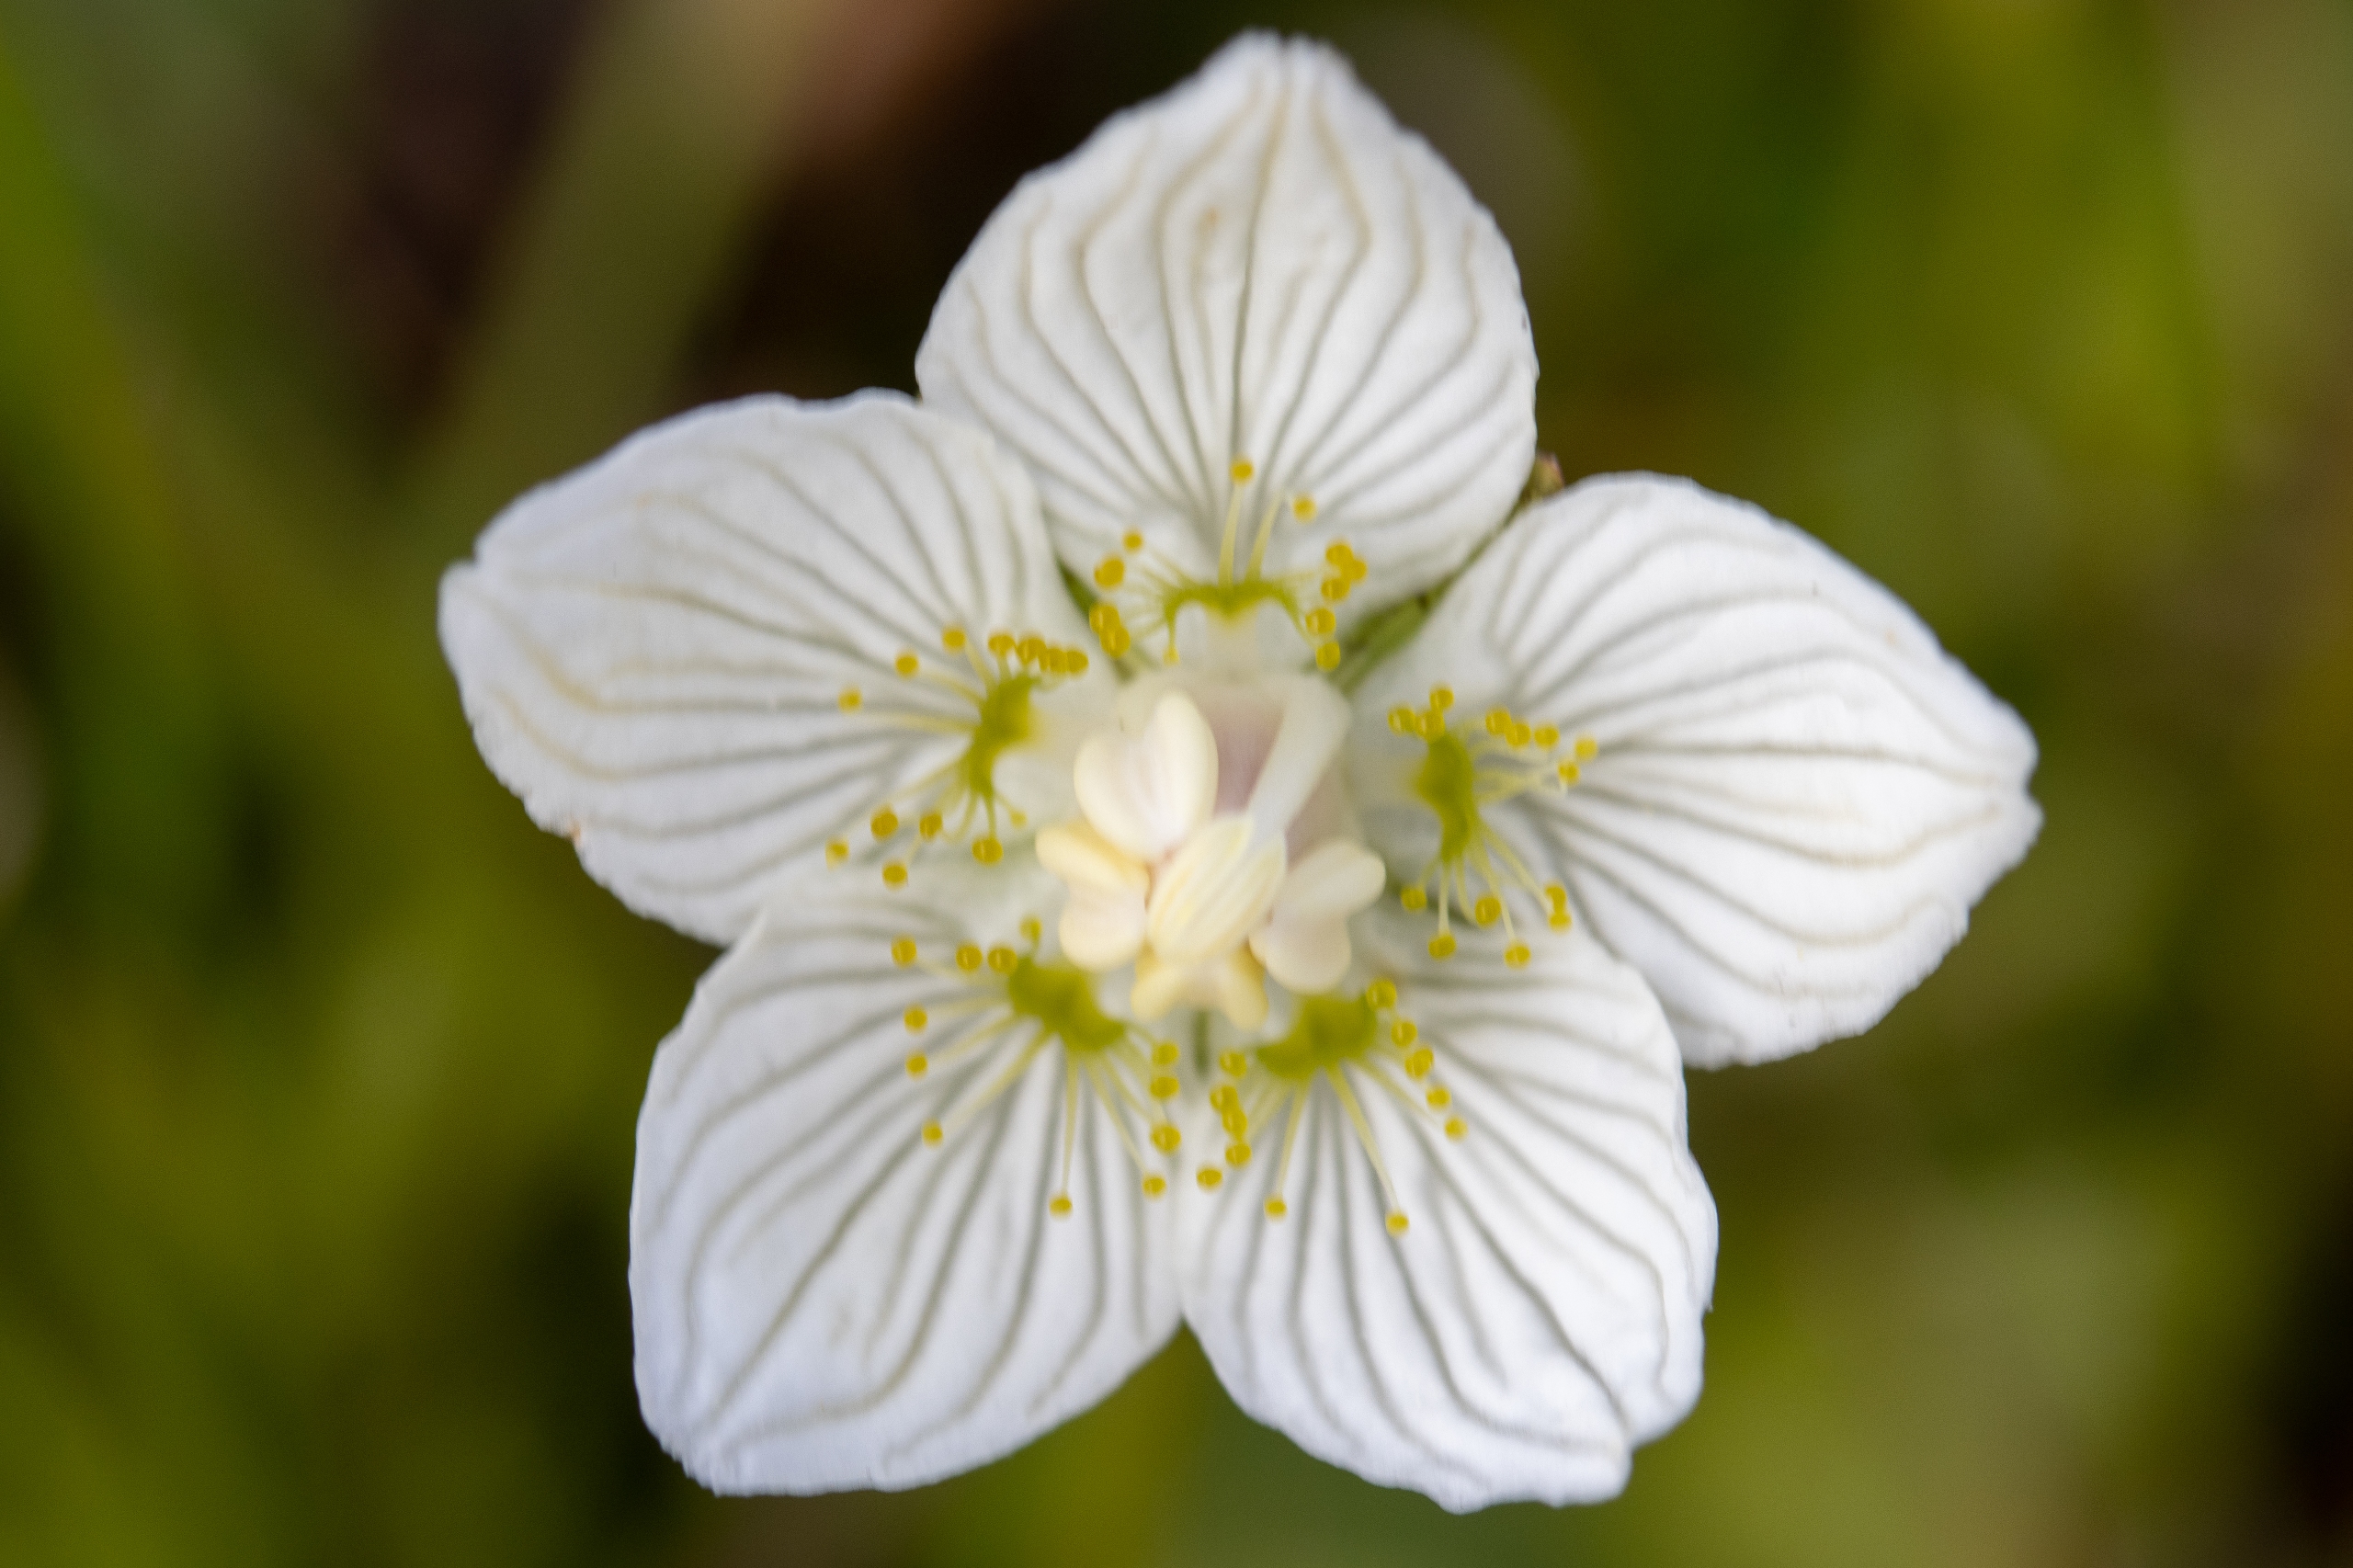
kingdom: Plantae
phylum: Tracheophyta
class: Magnoliopsida
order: Celastrales
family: Parnassiaceae
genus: Parnassia
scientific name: Parnassia palustris
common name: Leverurt
